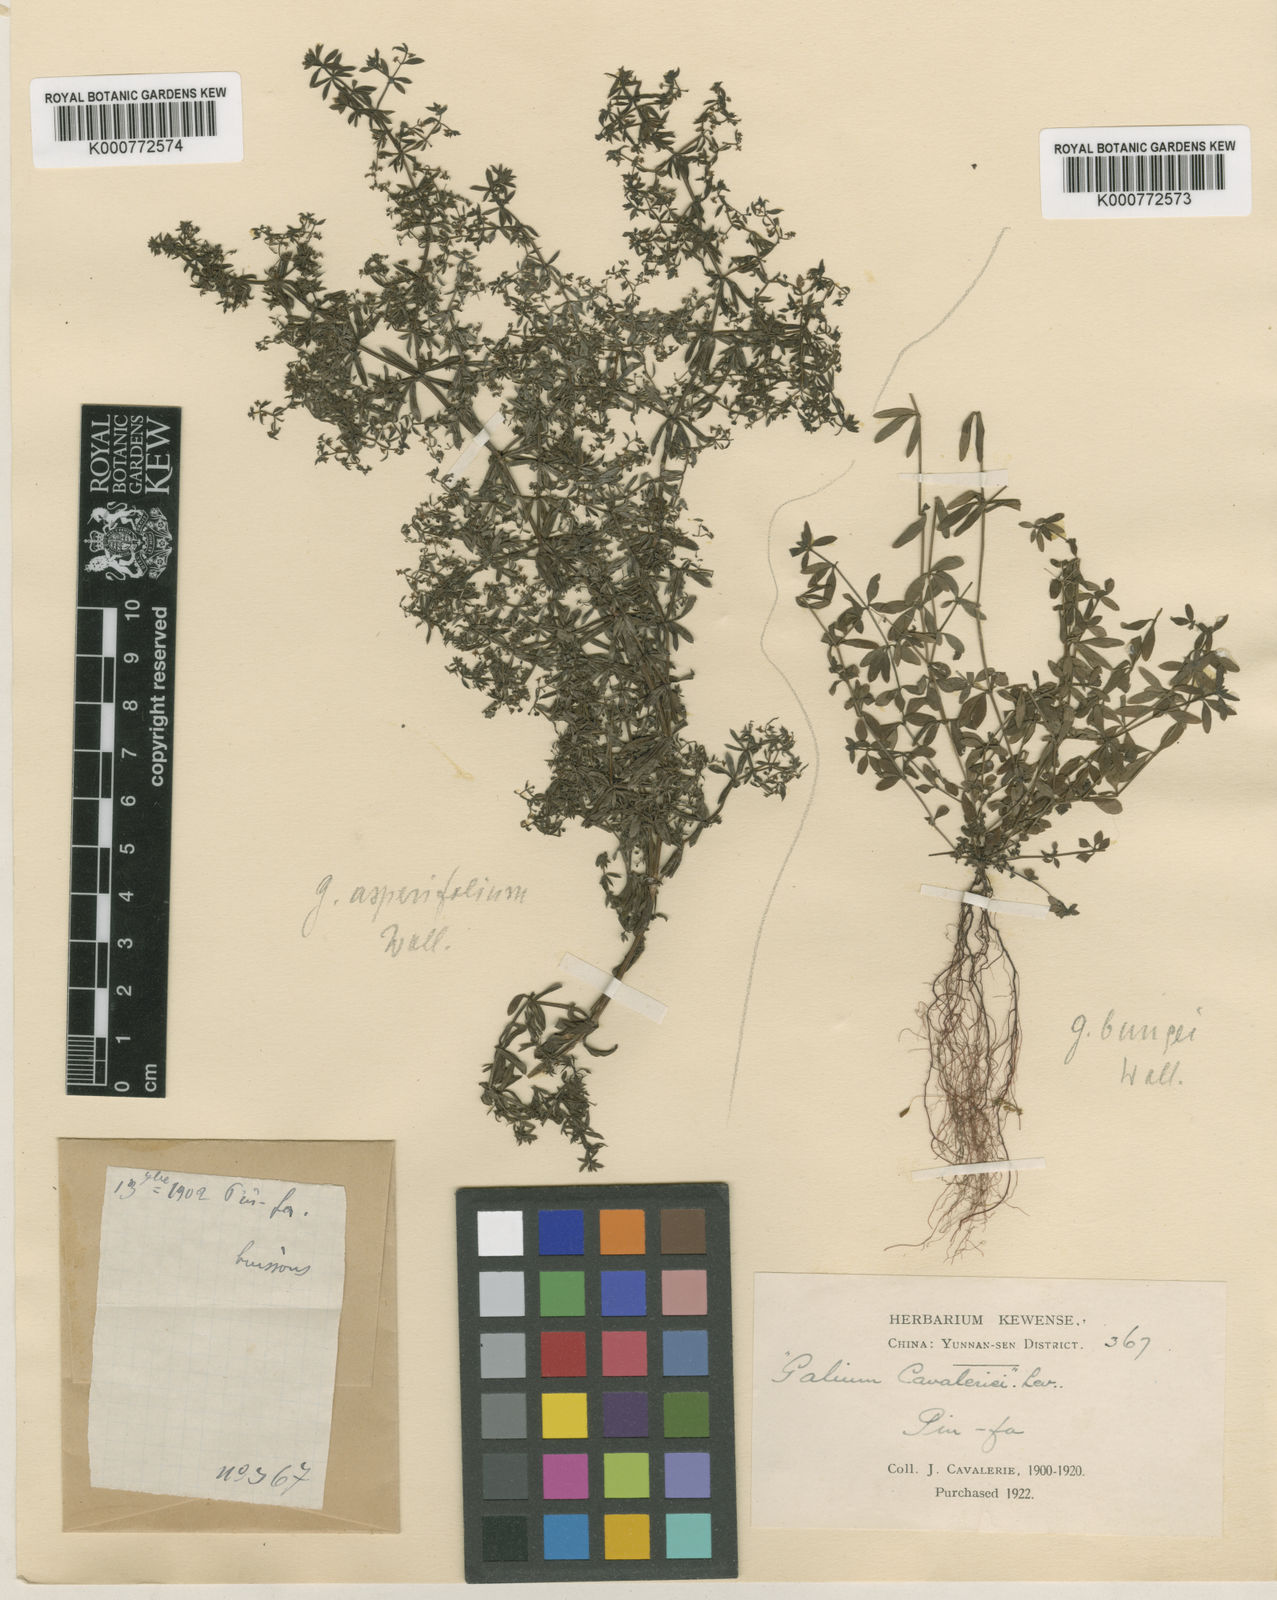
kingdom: Plantae
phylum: Tracheophyta
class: Magnoliopsida
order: Gentianales
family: Rubiaceae
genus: Galium
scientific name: Galium
